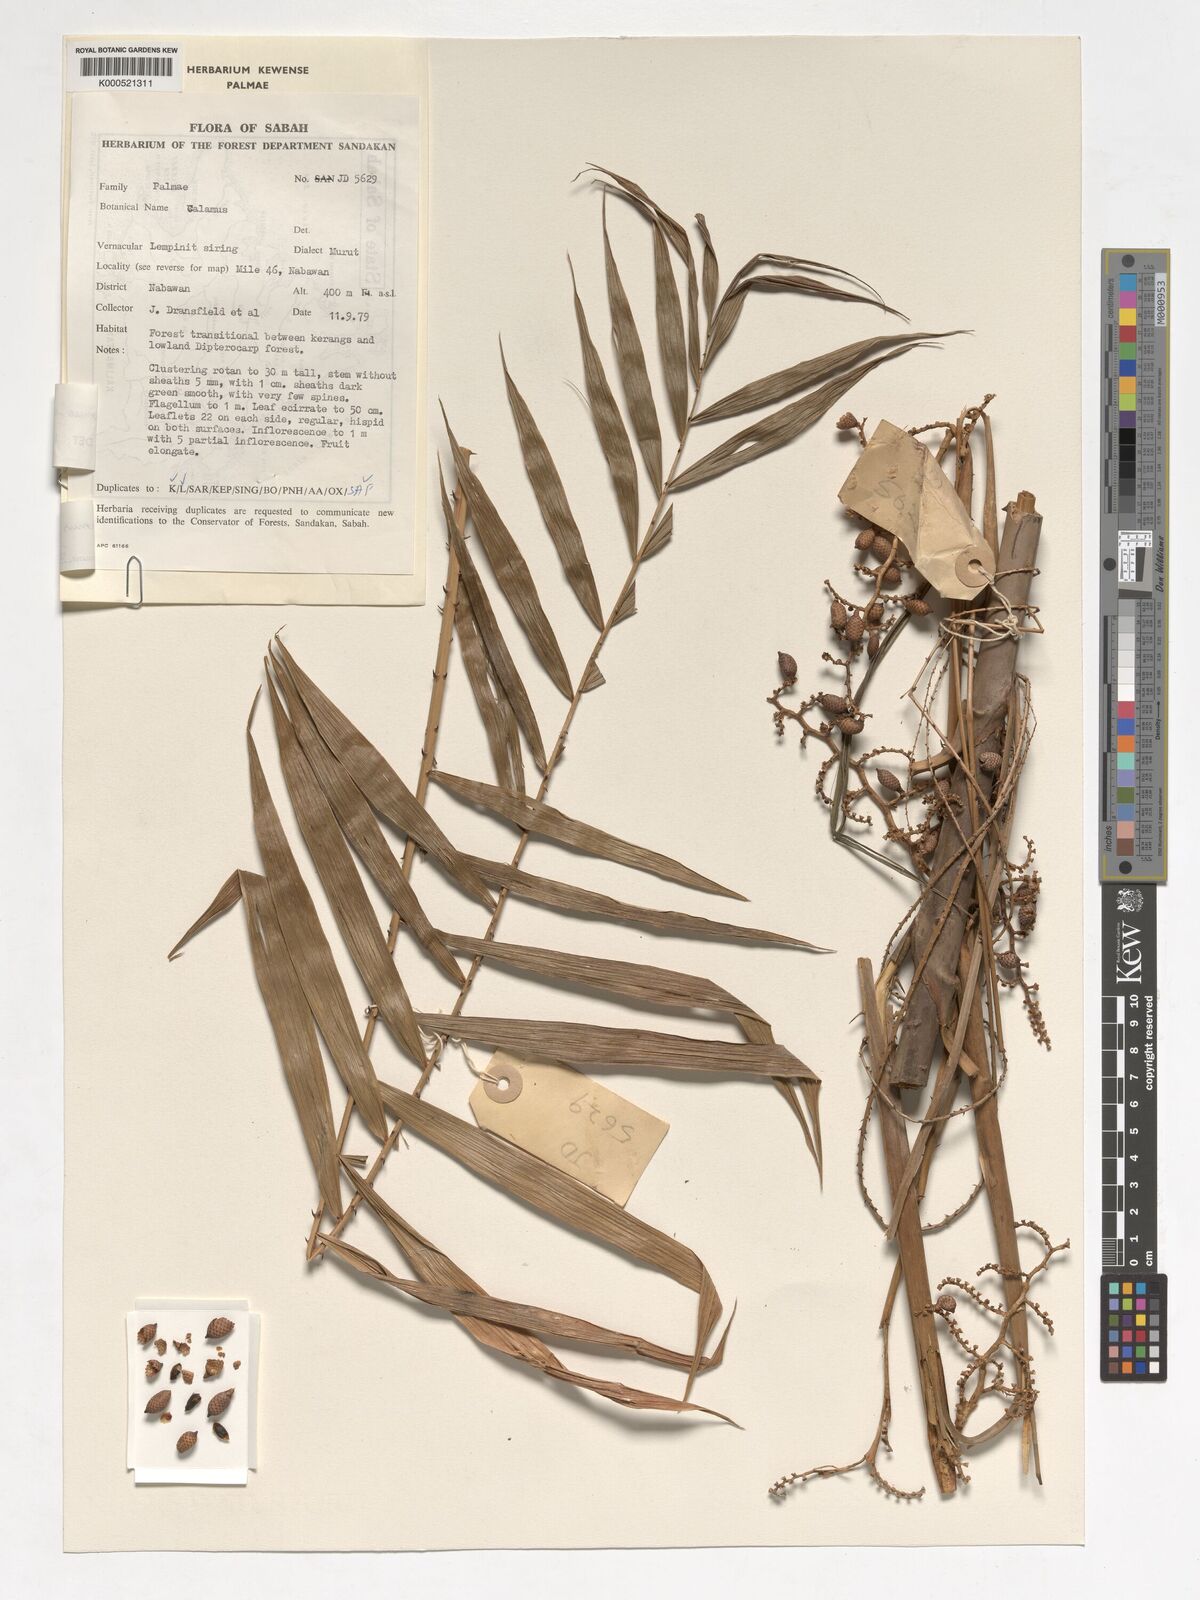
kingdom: Plantae
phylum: Tracheophyta
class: Liliopsida
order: Arecales
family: Arecaceae
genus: Calamus
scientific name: Calamus sarawakensis
